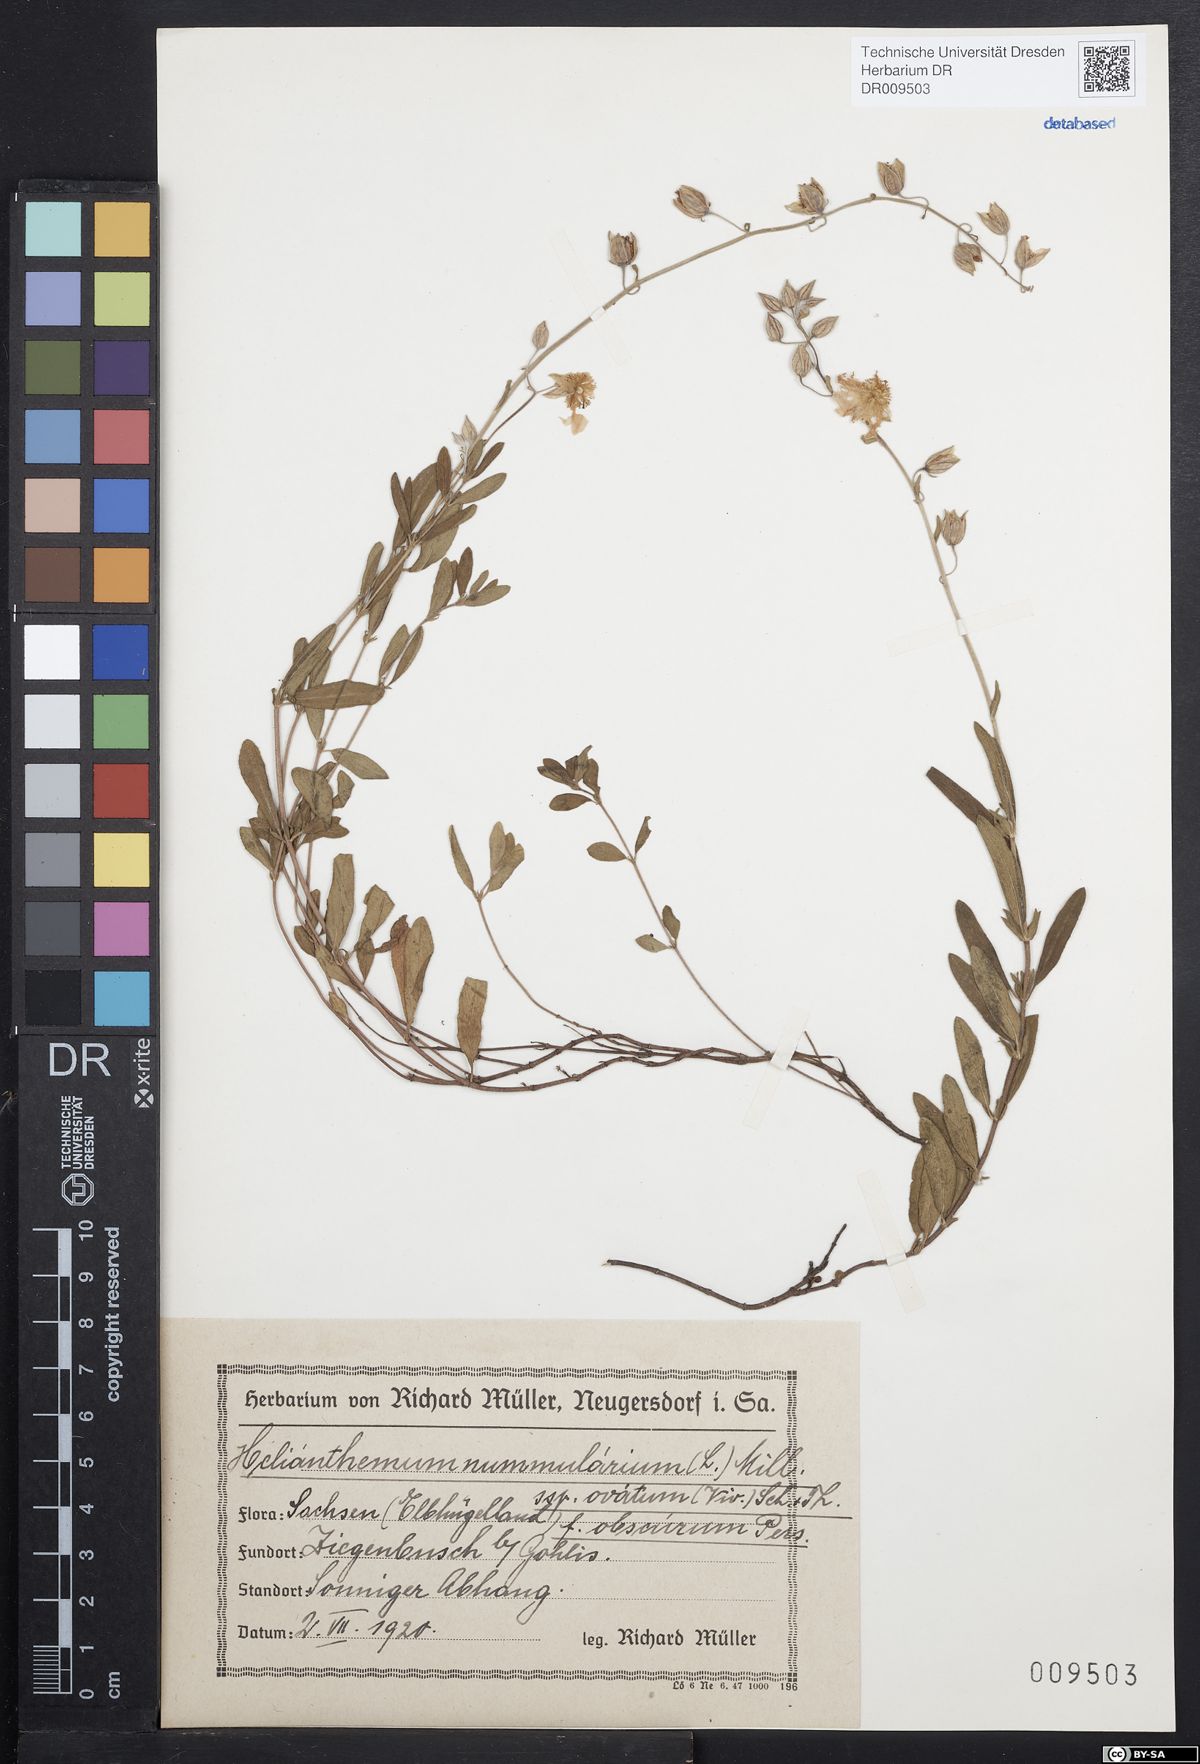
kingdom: Plantae
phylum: Tracheophyta
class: Magnoliopsida
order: Malvales
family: Cistaceae
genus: Helianthemum
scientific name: Helianthemum nummularium
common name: Common rock-rose
